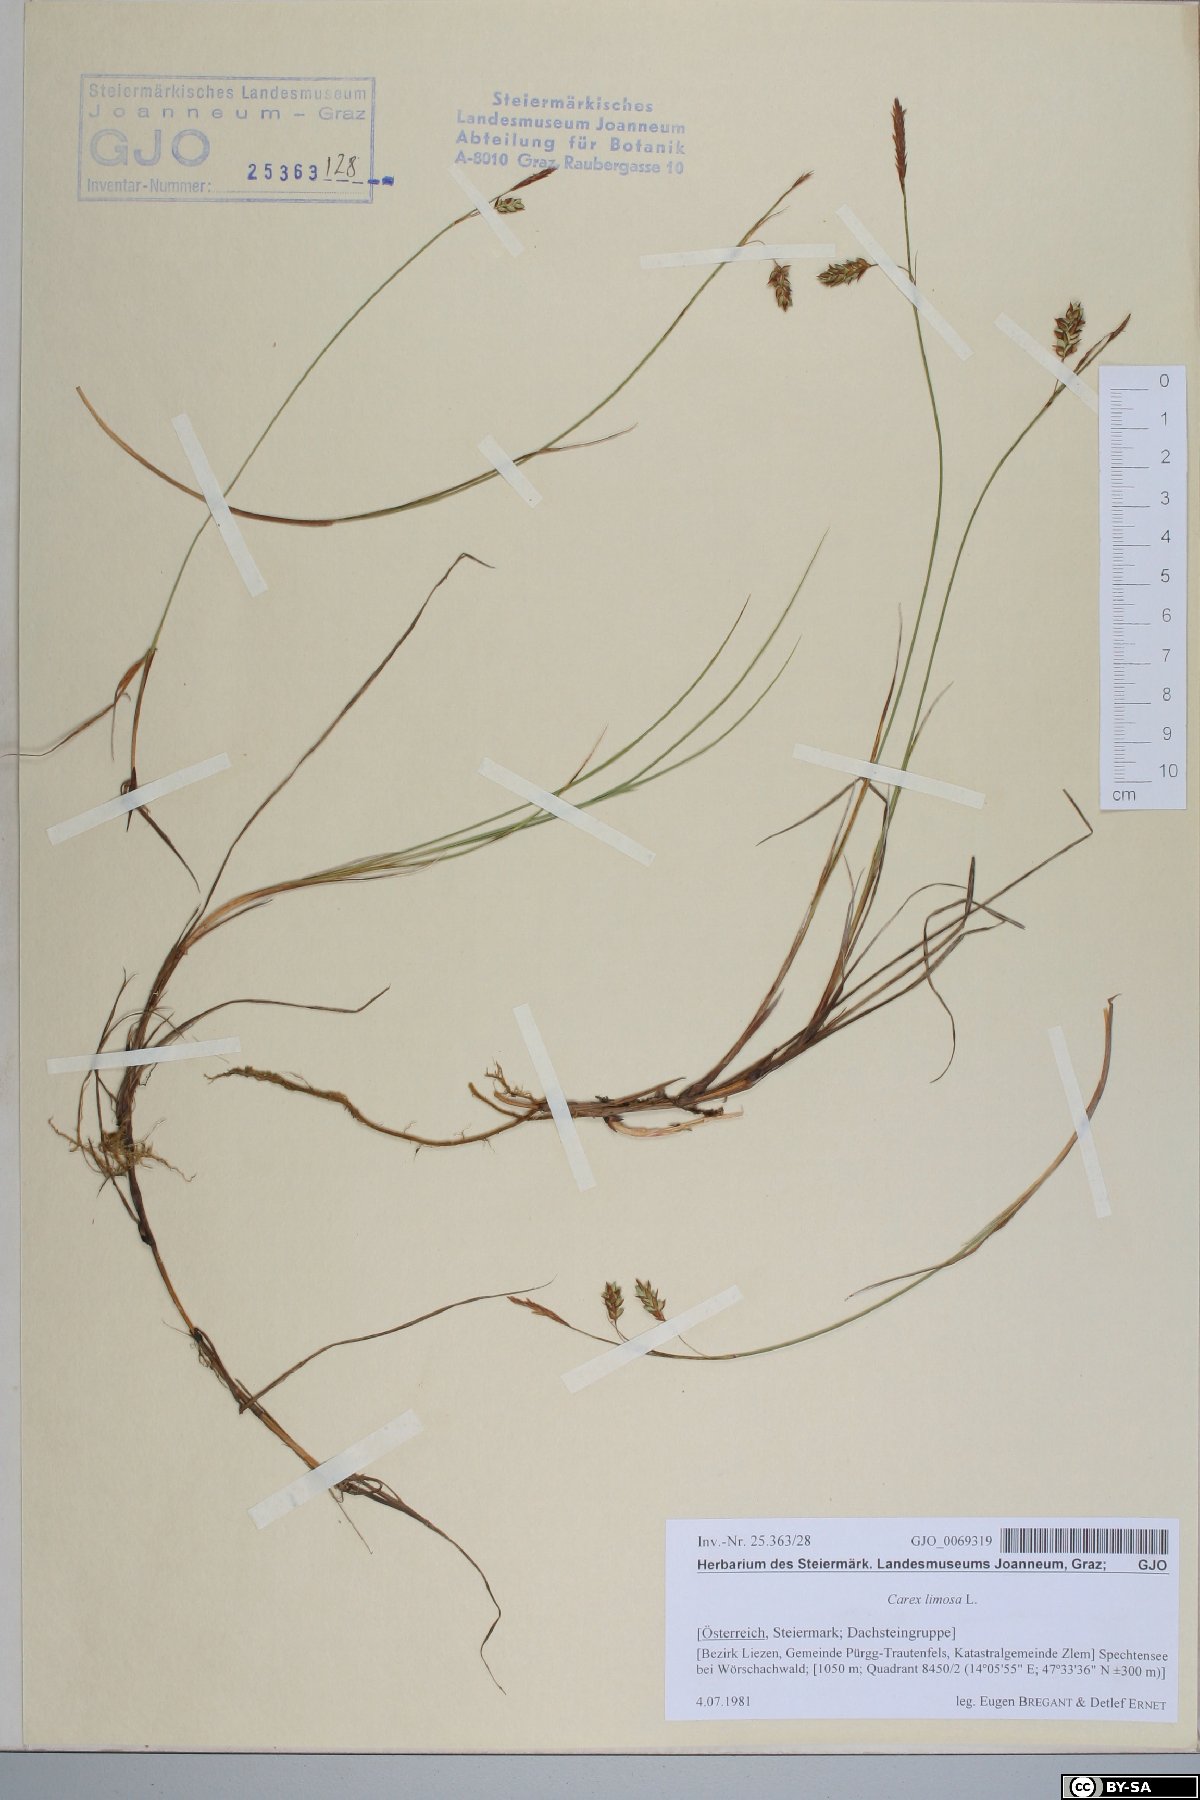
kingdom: Plantae
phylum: Tracheophyta
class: Liliopsida
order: Poales
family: Cyperaceae
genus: Carex
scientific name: Carex limosa
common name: Bog sedge
